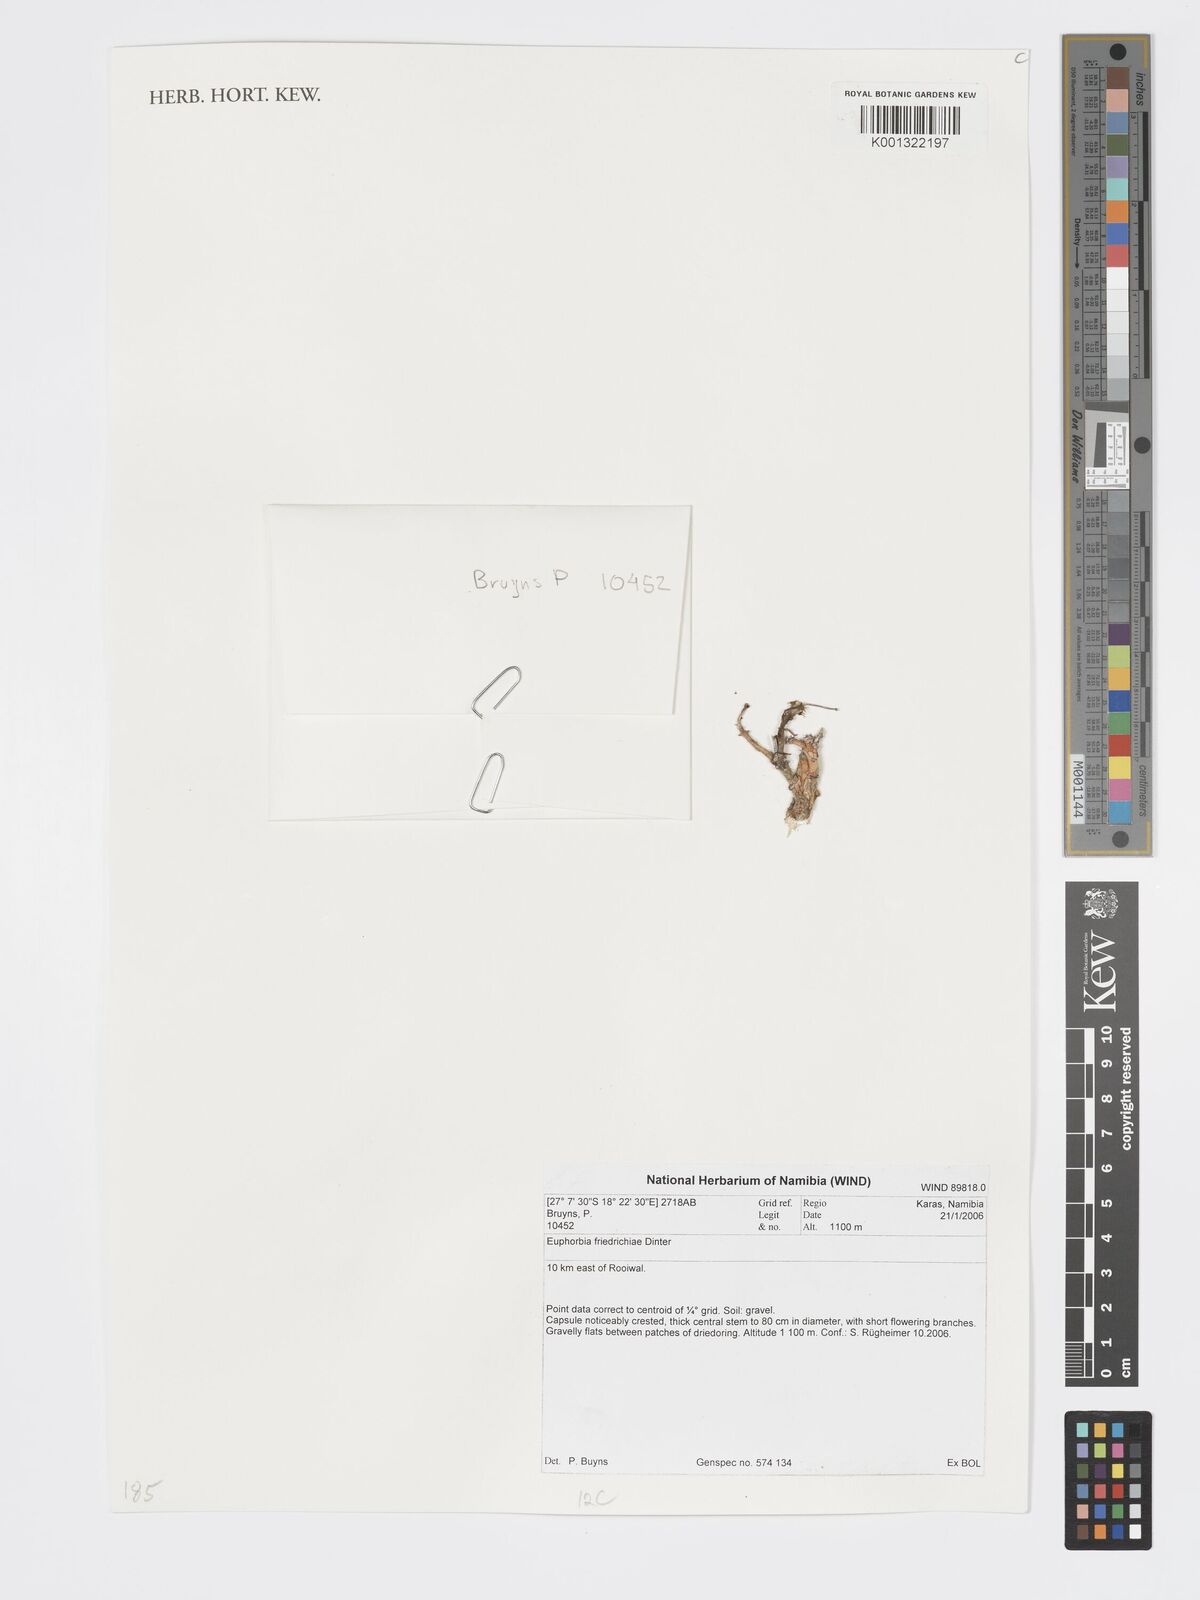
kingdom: Plantae
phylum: Tracheophyta
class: Magnoliopsida
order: Malpighiales
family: Euphorbiaceae
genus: Euphorbia
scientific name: Euphorbia friedrichiae
